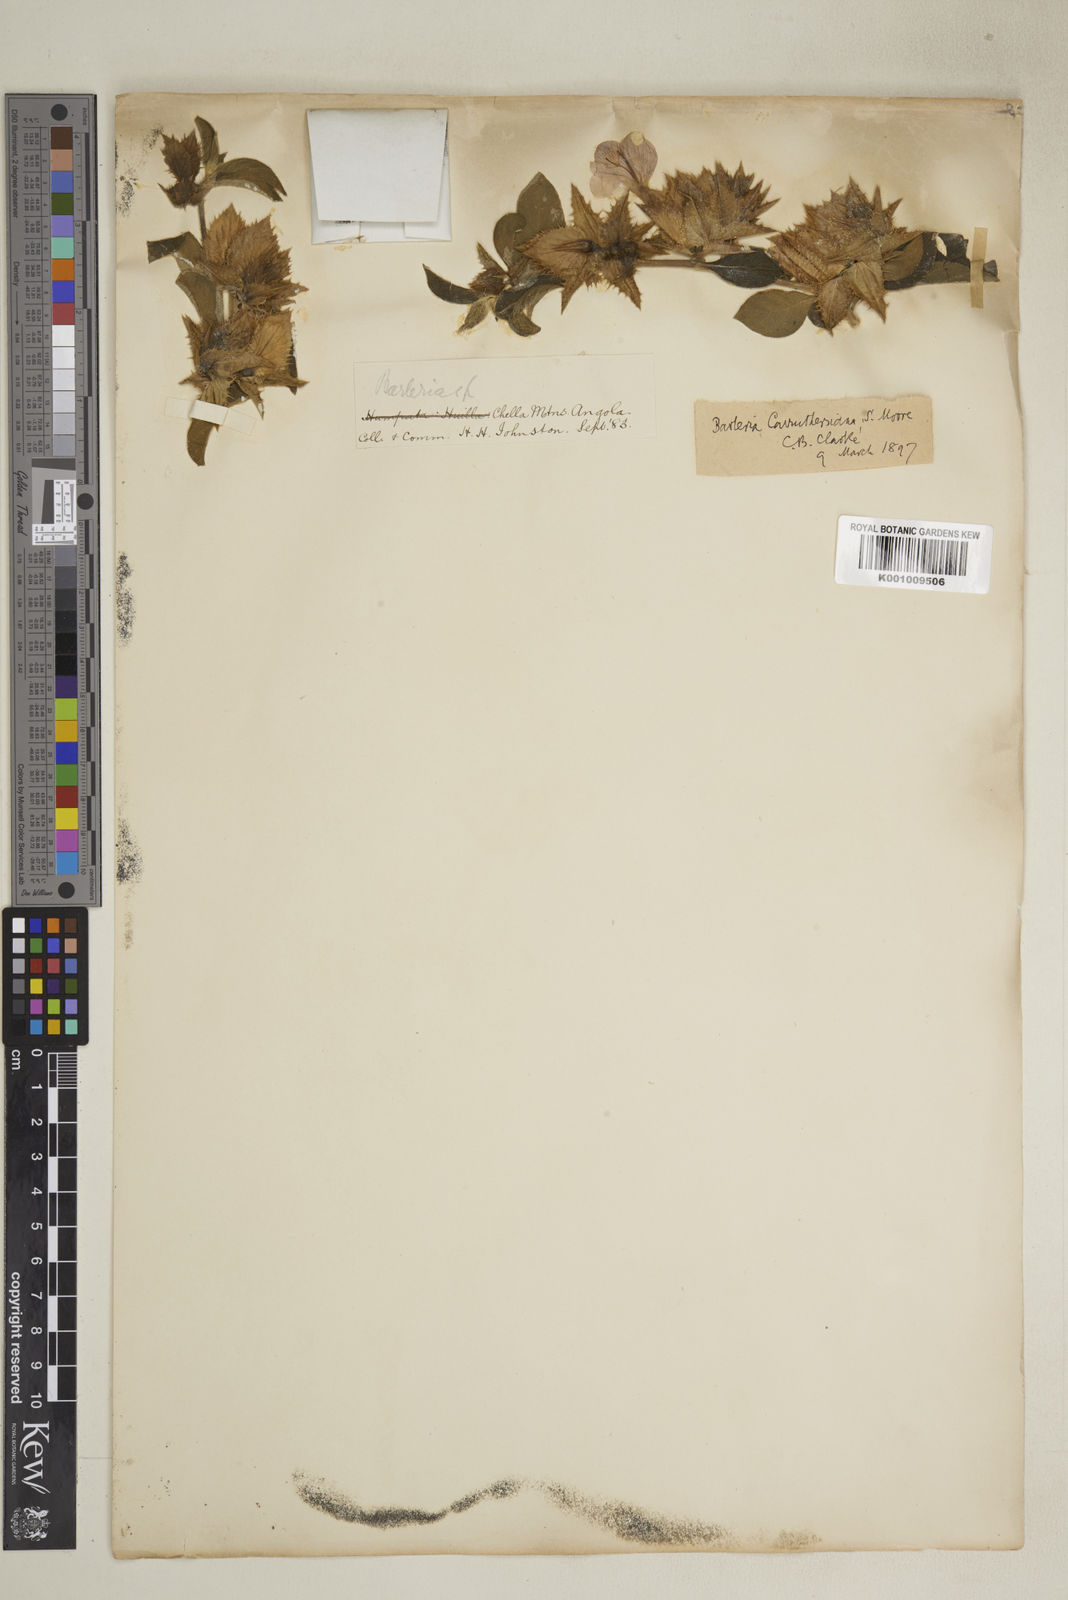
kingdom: Plantae
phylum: Tracheophyta
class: Magnoliopsida
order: Lamiales
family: Acanthaceae
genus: Barleria
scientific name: Barleria carruthersiana
